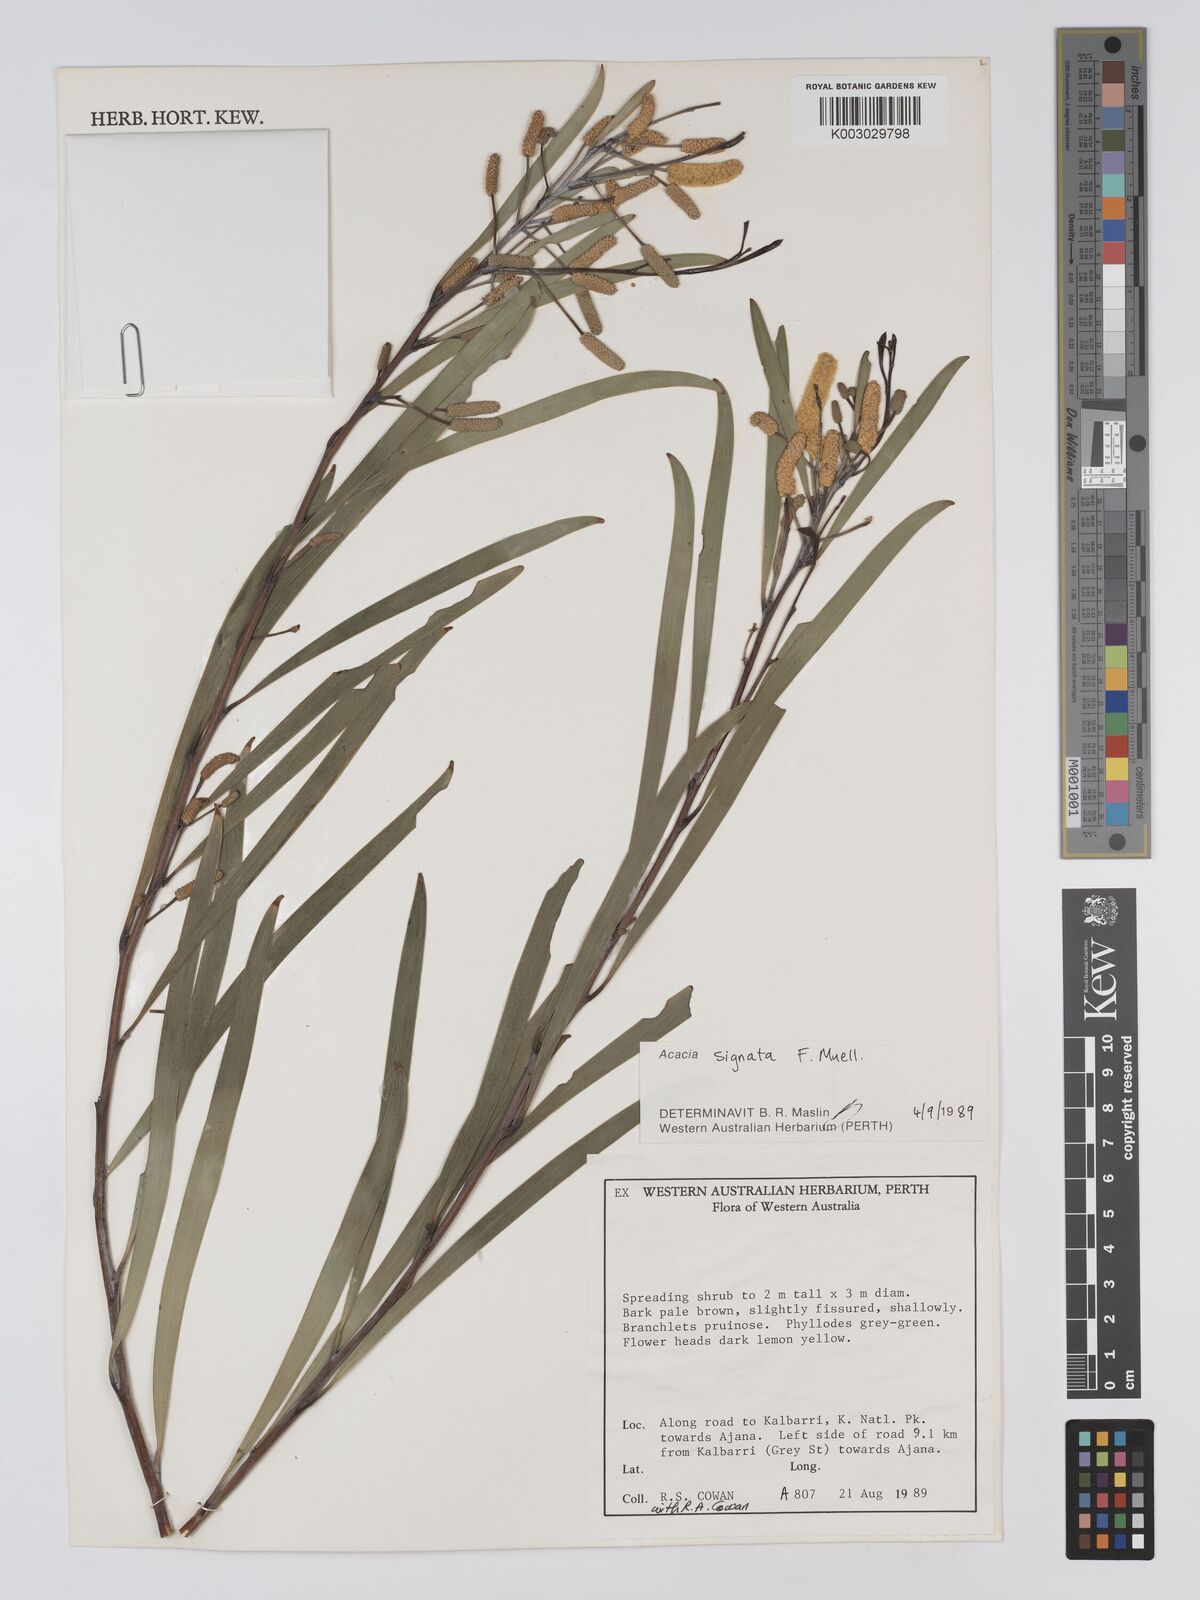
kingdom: Plantae
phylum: Tracheophyta
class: Magnoliopsida
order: Fabales
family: Fabaceae
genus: Acacia
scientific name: Acacia signata
